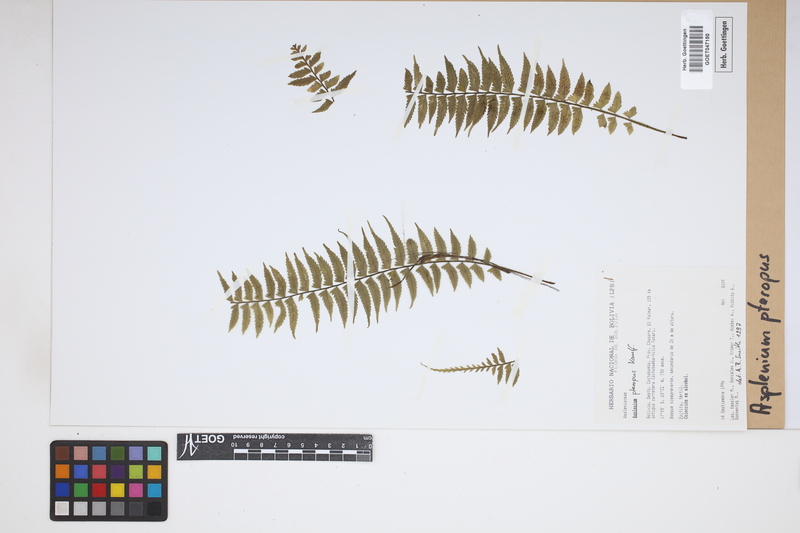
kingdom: Plantae
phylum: Tracheophyta
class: Polypodiopsida
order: Polypodiales
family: Aspleniaceae
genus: Asplenium
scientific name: Asplenium pteropus
